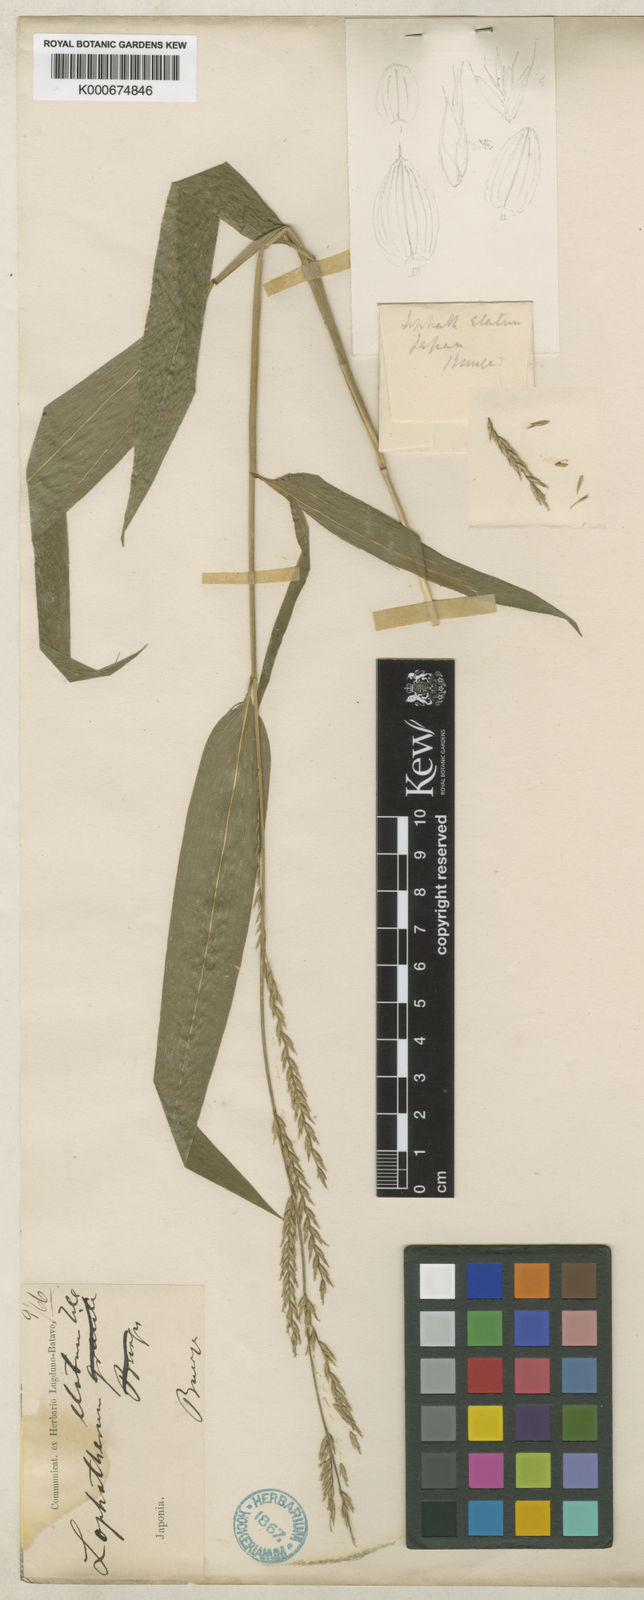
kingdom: Plantae
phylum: Tracheophyta
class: Liliopsida
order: Poales
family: Poaceae
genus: Lophatherum
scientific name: Lophatherum
